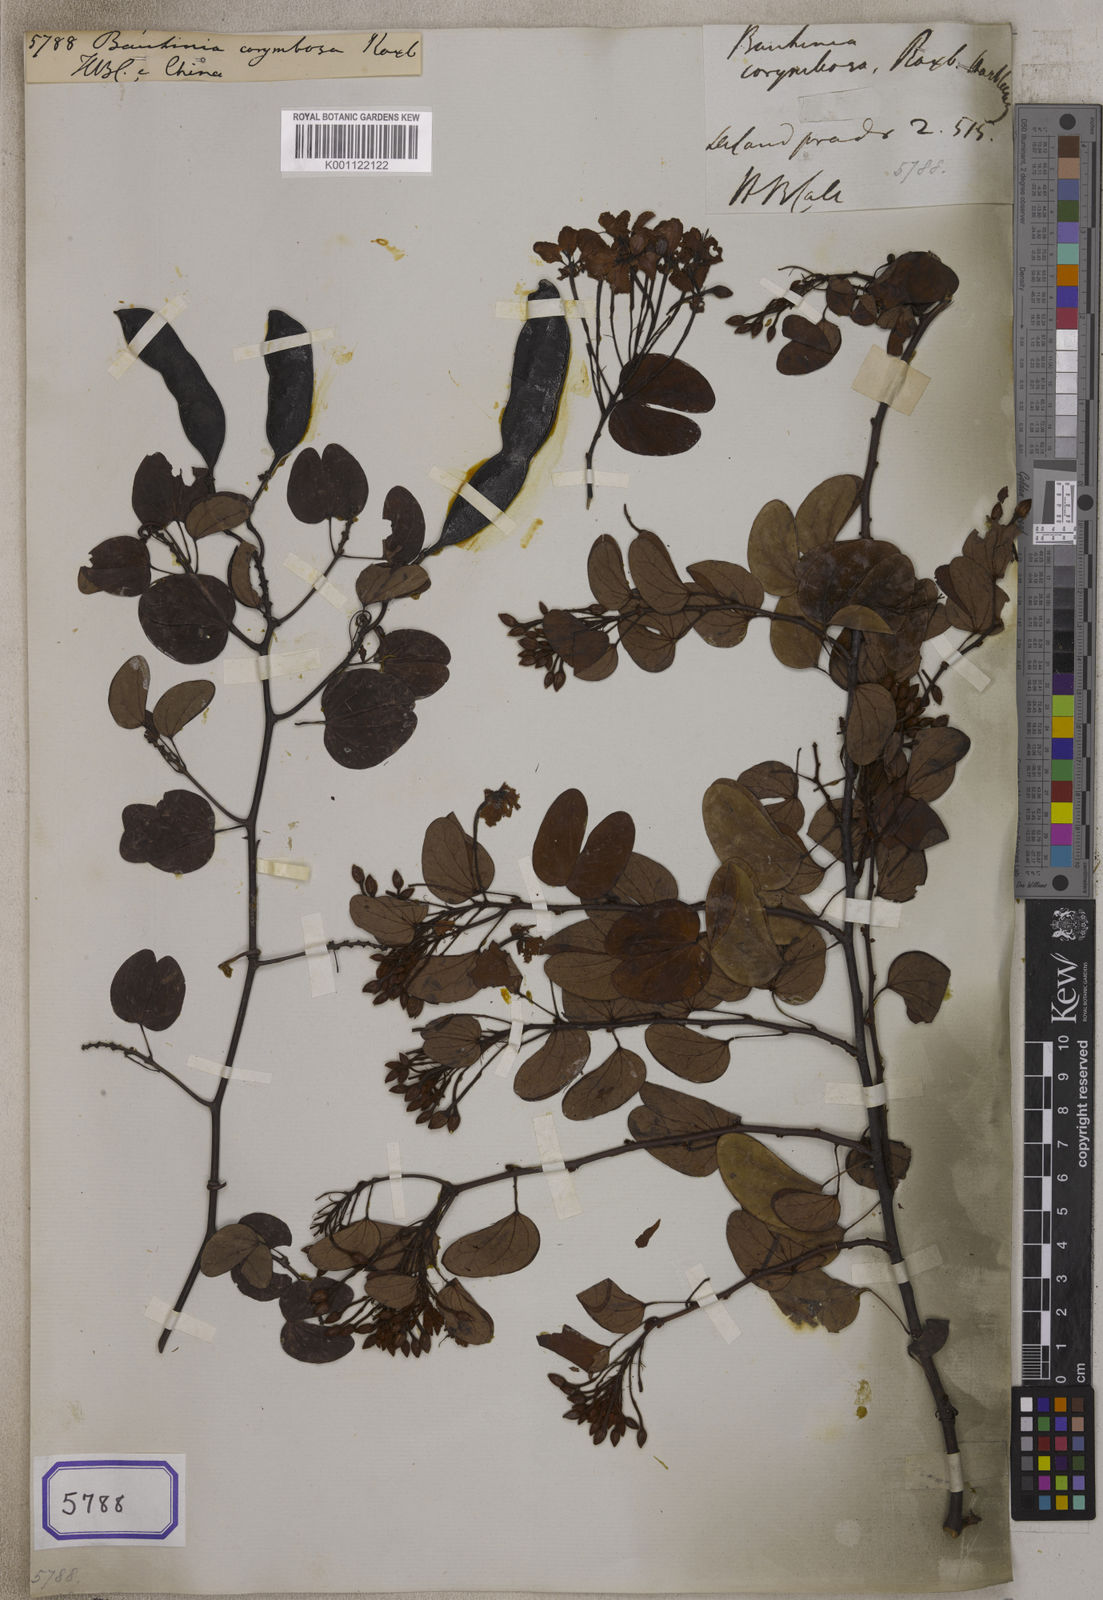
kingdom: Plantae
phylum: Tracheophyta
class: Magnoliopsida
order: Fabales
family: Fabaceae
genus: Bauhinia
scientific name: Bauhinia
